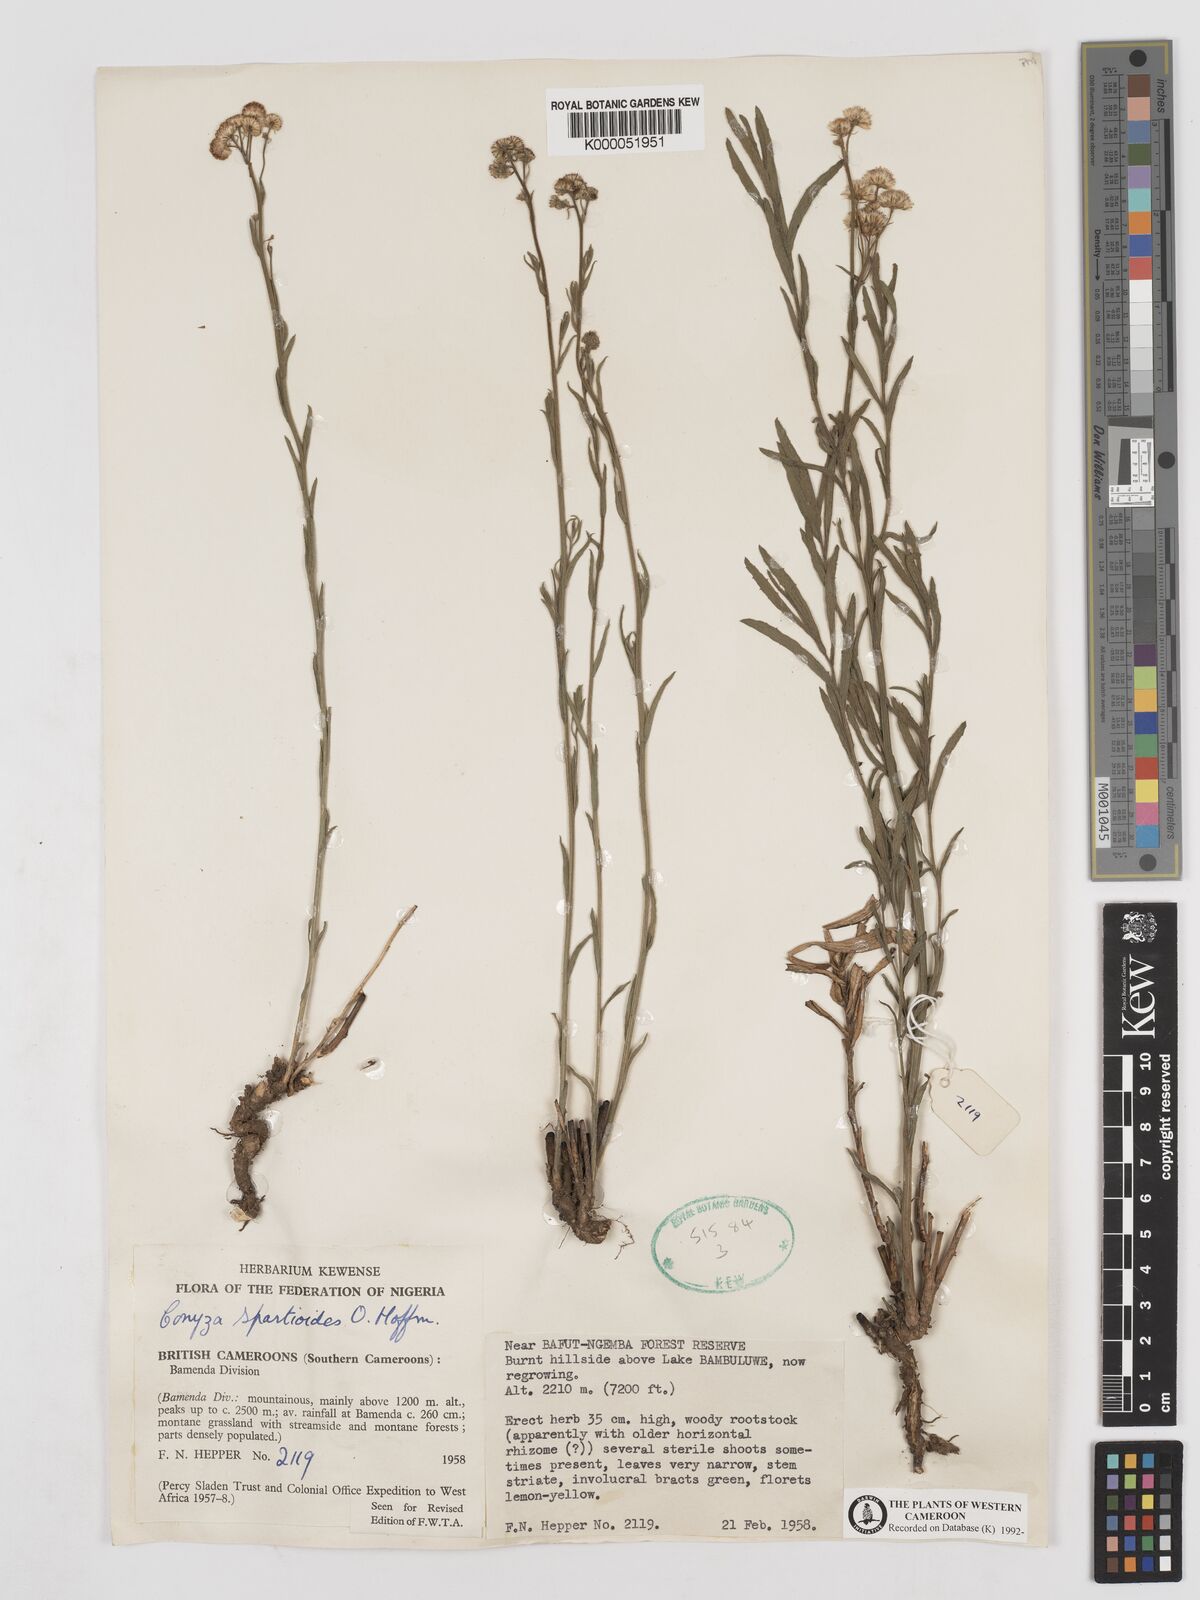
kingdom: Plantae
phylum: Tracheophyta
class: Magnoliopsida
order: Asterales
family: Asteraceae
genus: Nidorella
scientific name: Nidorella spartioides
